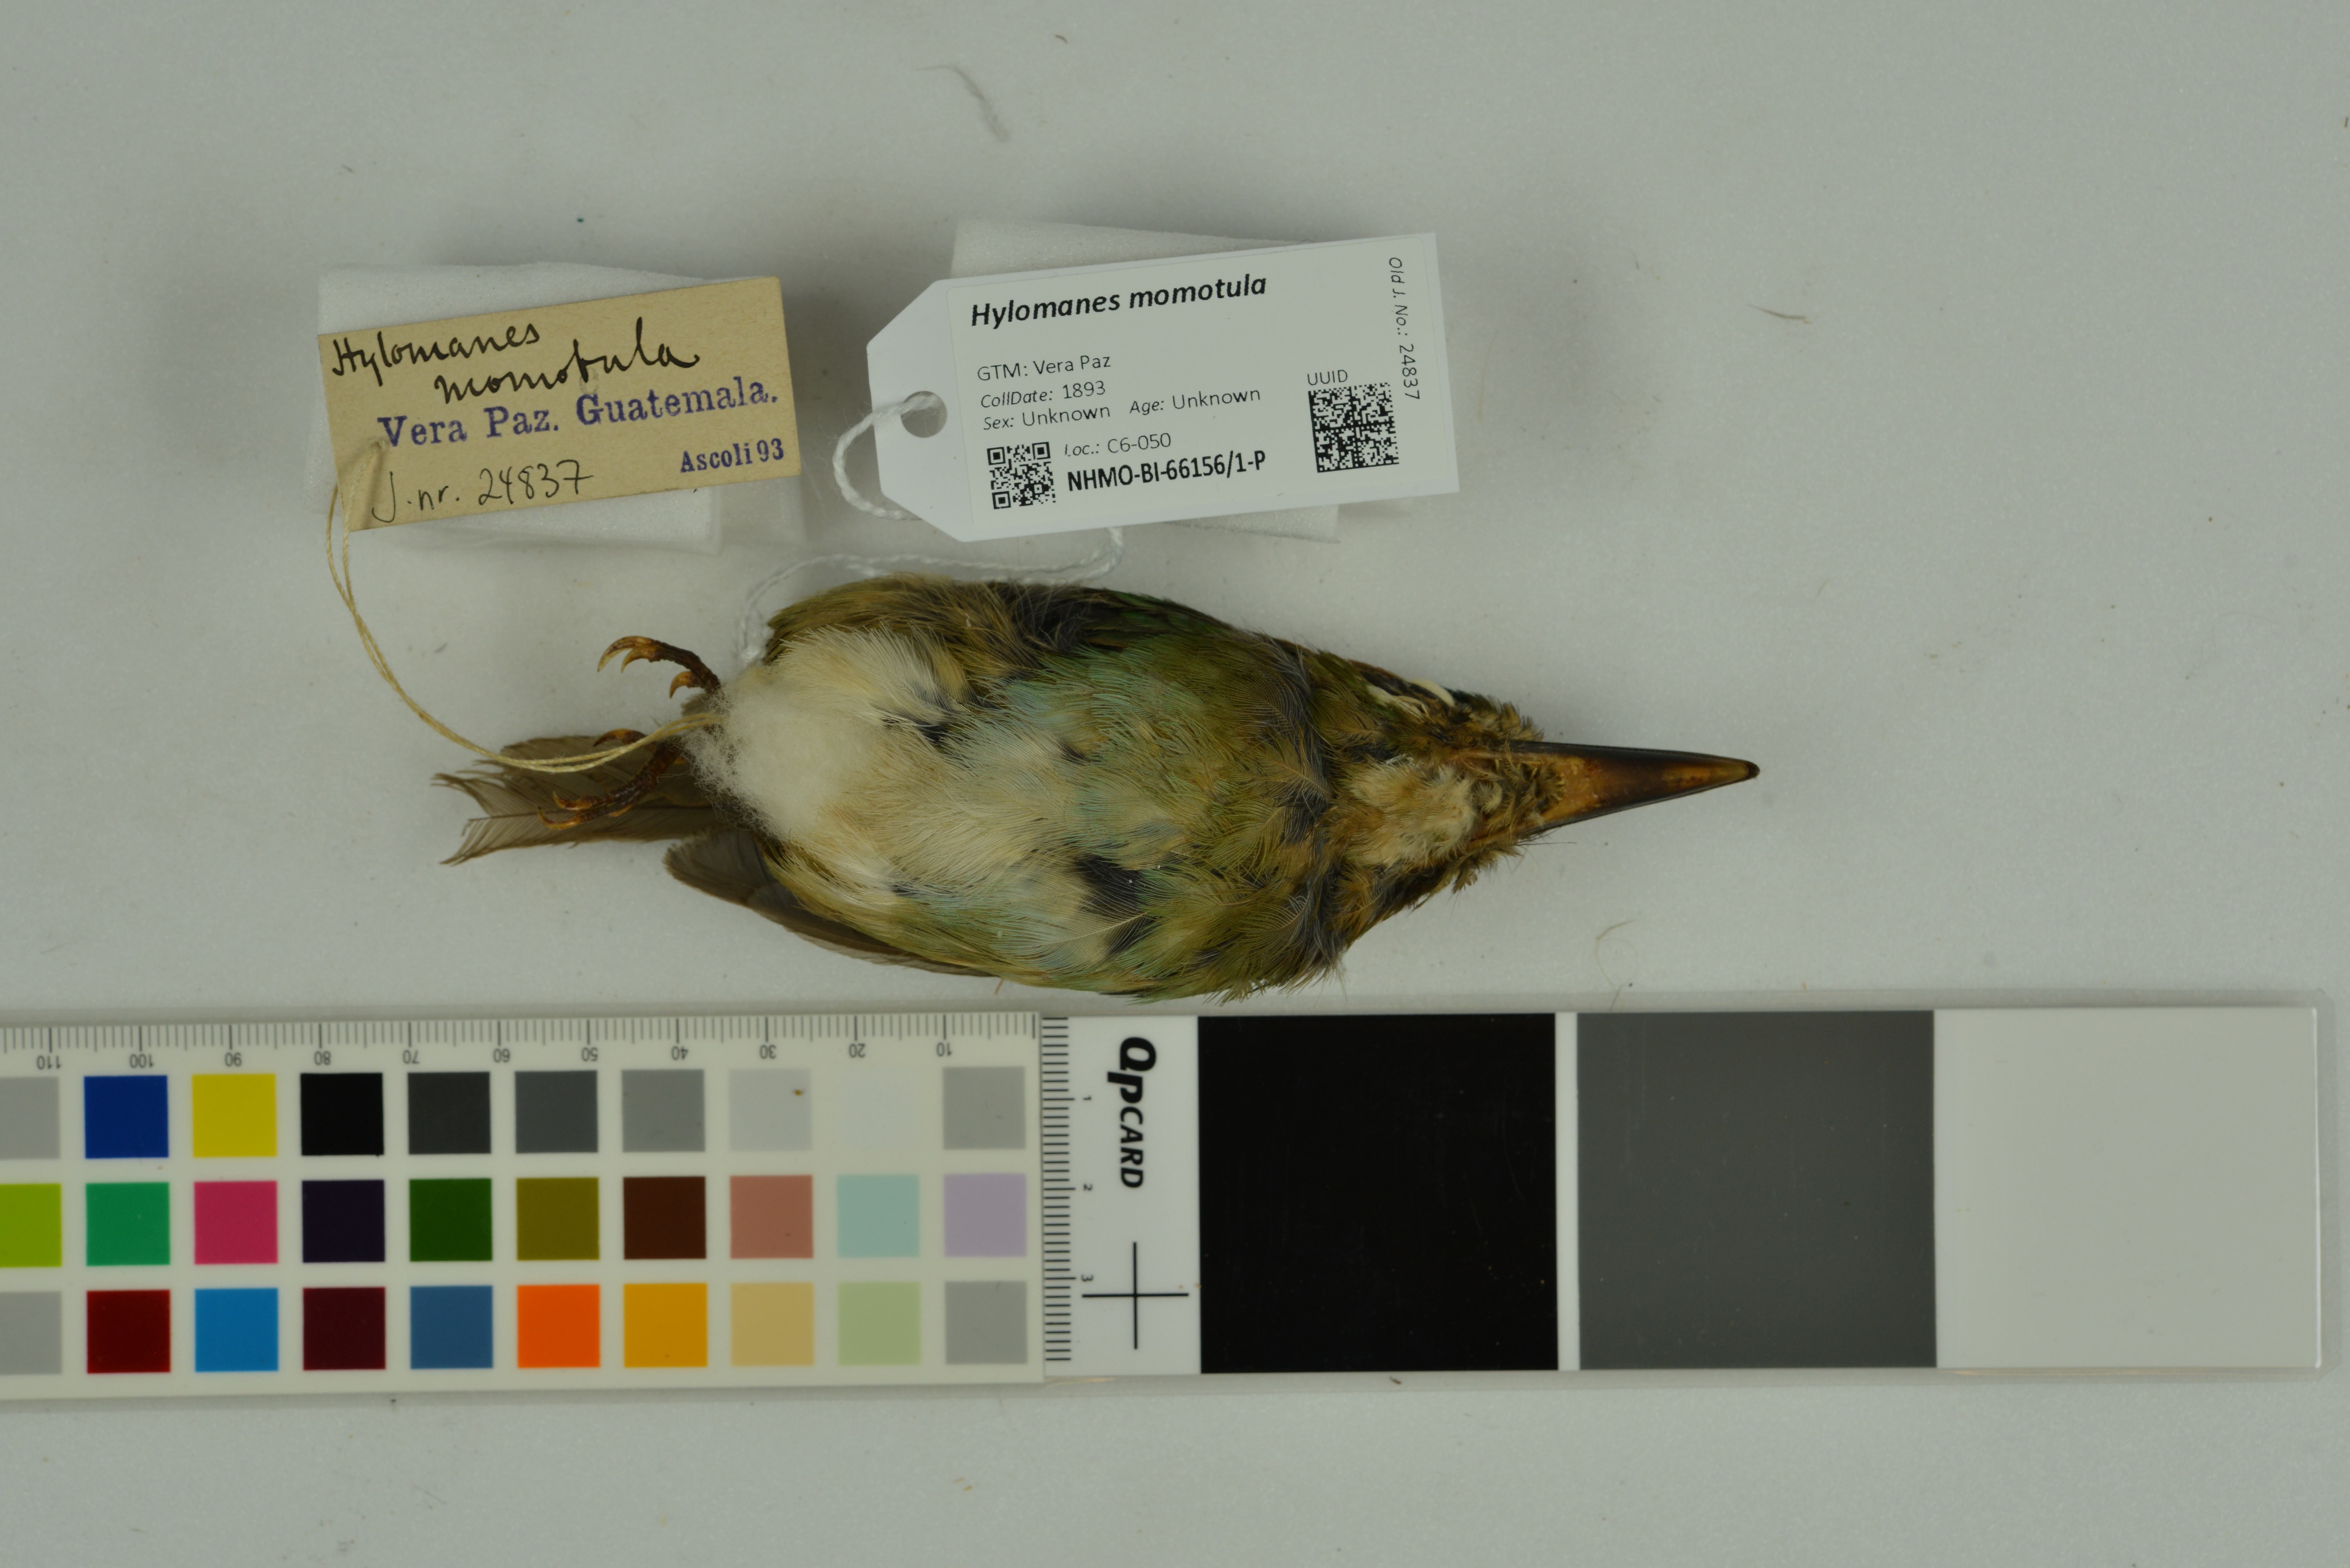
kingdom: Animalia
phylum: Chordata
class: Aves
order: Coraciiformes
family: Momotidae
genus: Hylomanes
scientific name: Hylomanes momotula
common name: Tody motmot
